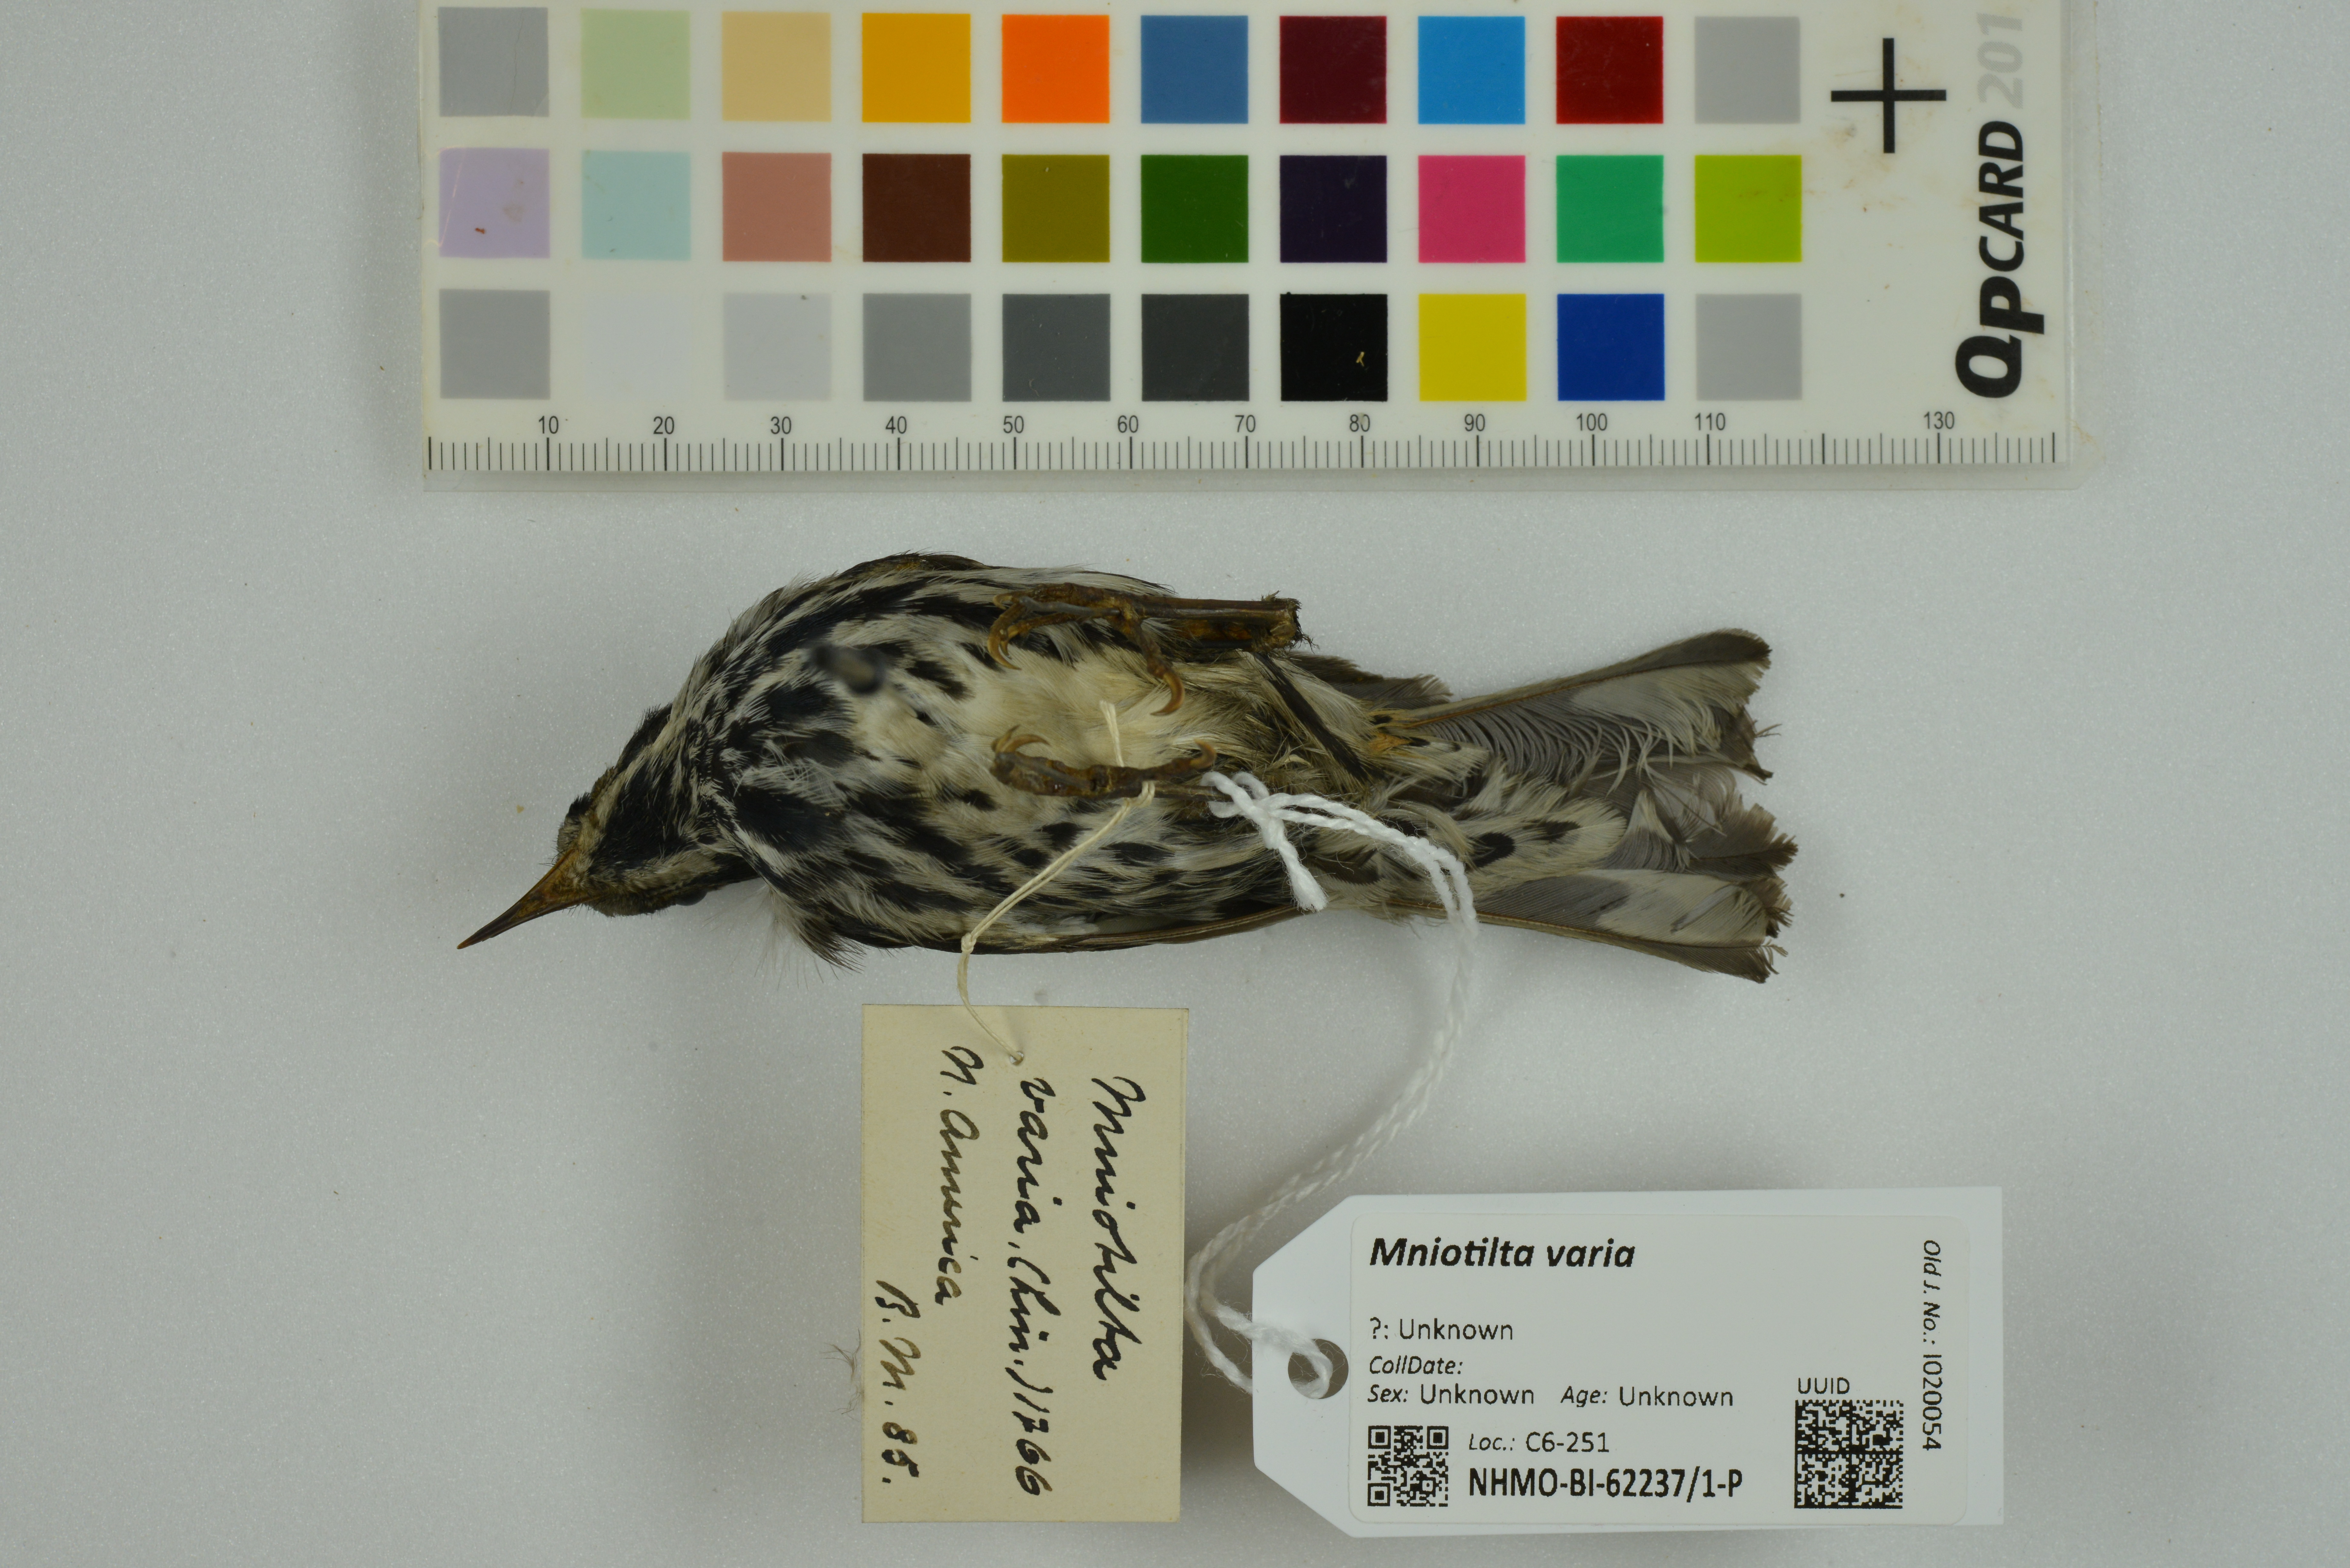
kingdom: Animalia
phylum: Chordata
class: Aves
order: Passeriformes
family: Parulidae
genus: Mniotilta
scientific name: Mniotilta varia
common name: Black-and-white warbler
